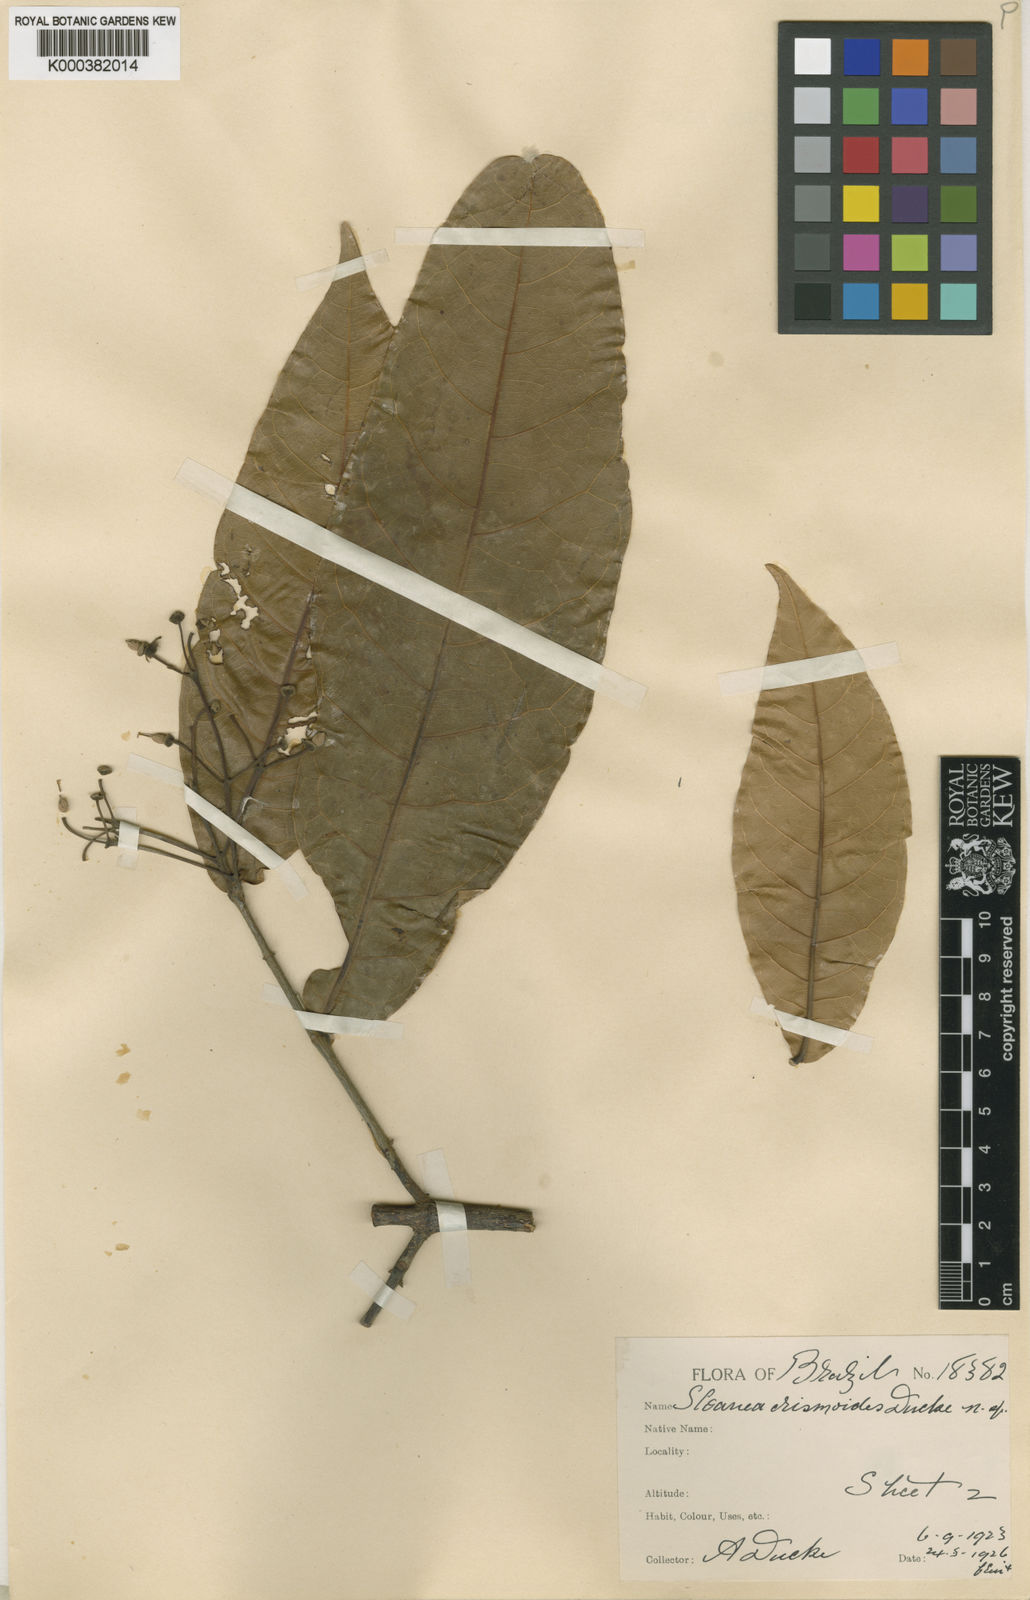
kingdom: Plantae
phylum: Tracheophyta
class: Magnoliopsida
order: Oxalidales
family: Elaeocarpaceae
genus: Sloanea
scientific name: Sloanea erismoides
